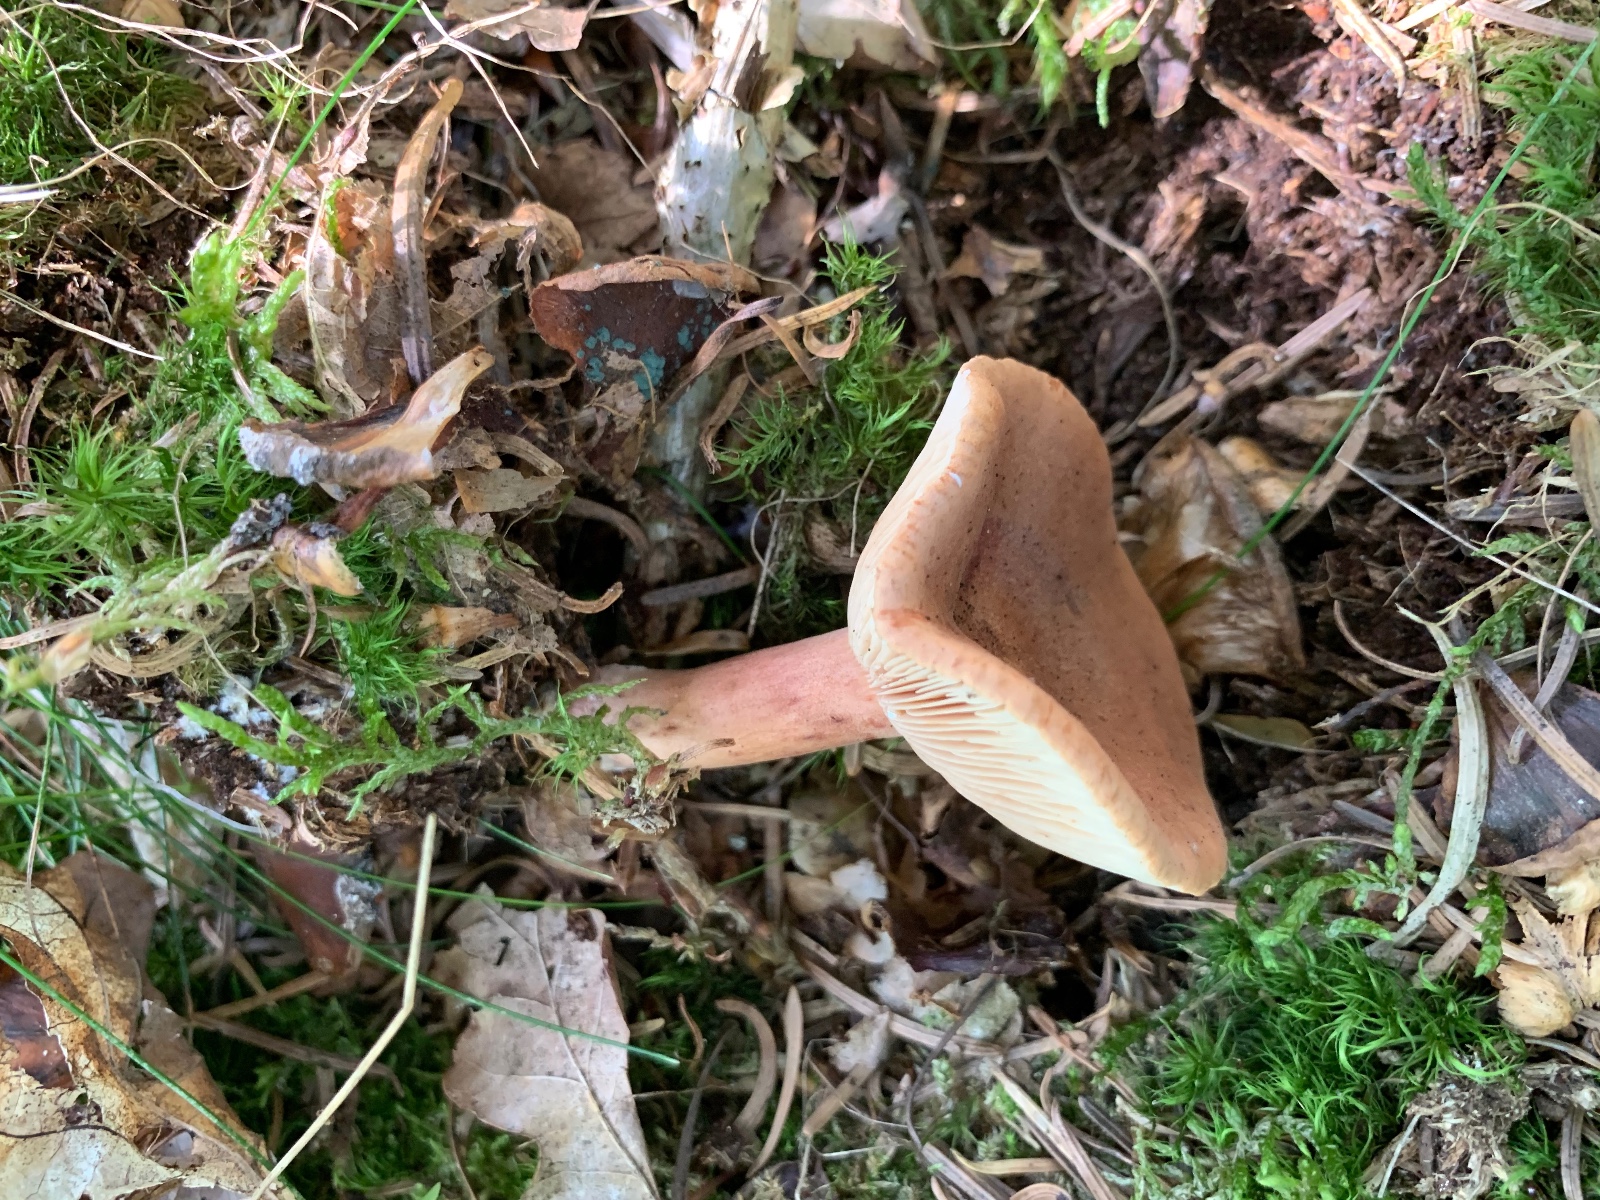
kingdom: Fungi
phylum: Basidiomycota
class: Agaricomycetes
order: Russulales
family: Russulaceae
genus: Lactarius
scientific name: Lactarius rufus
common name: rødbrun mælkehat
